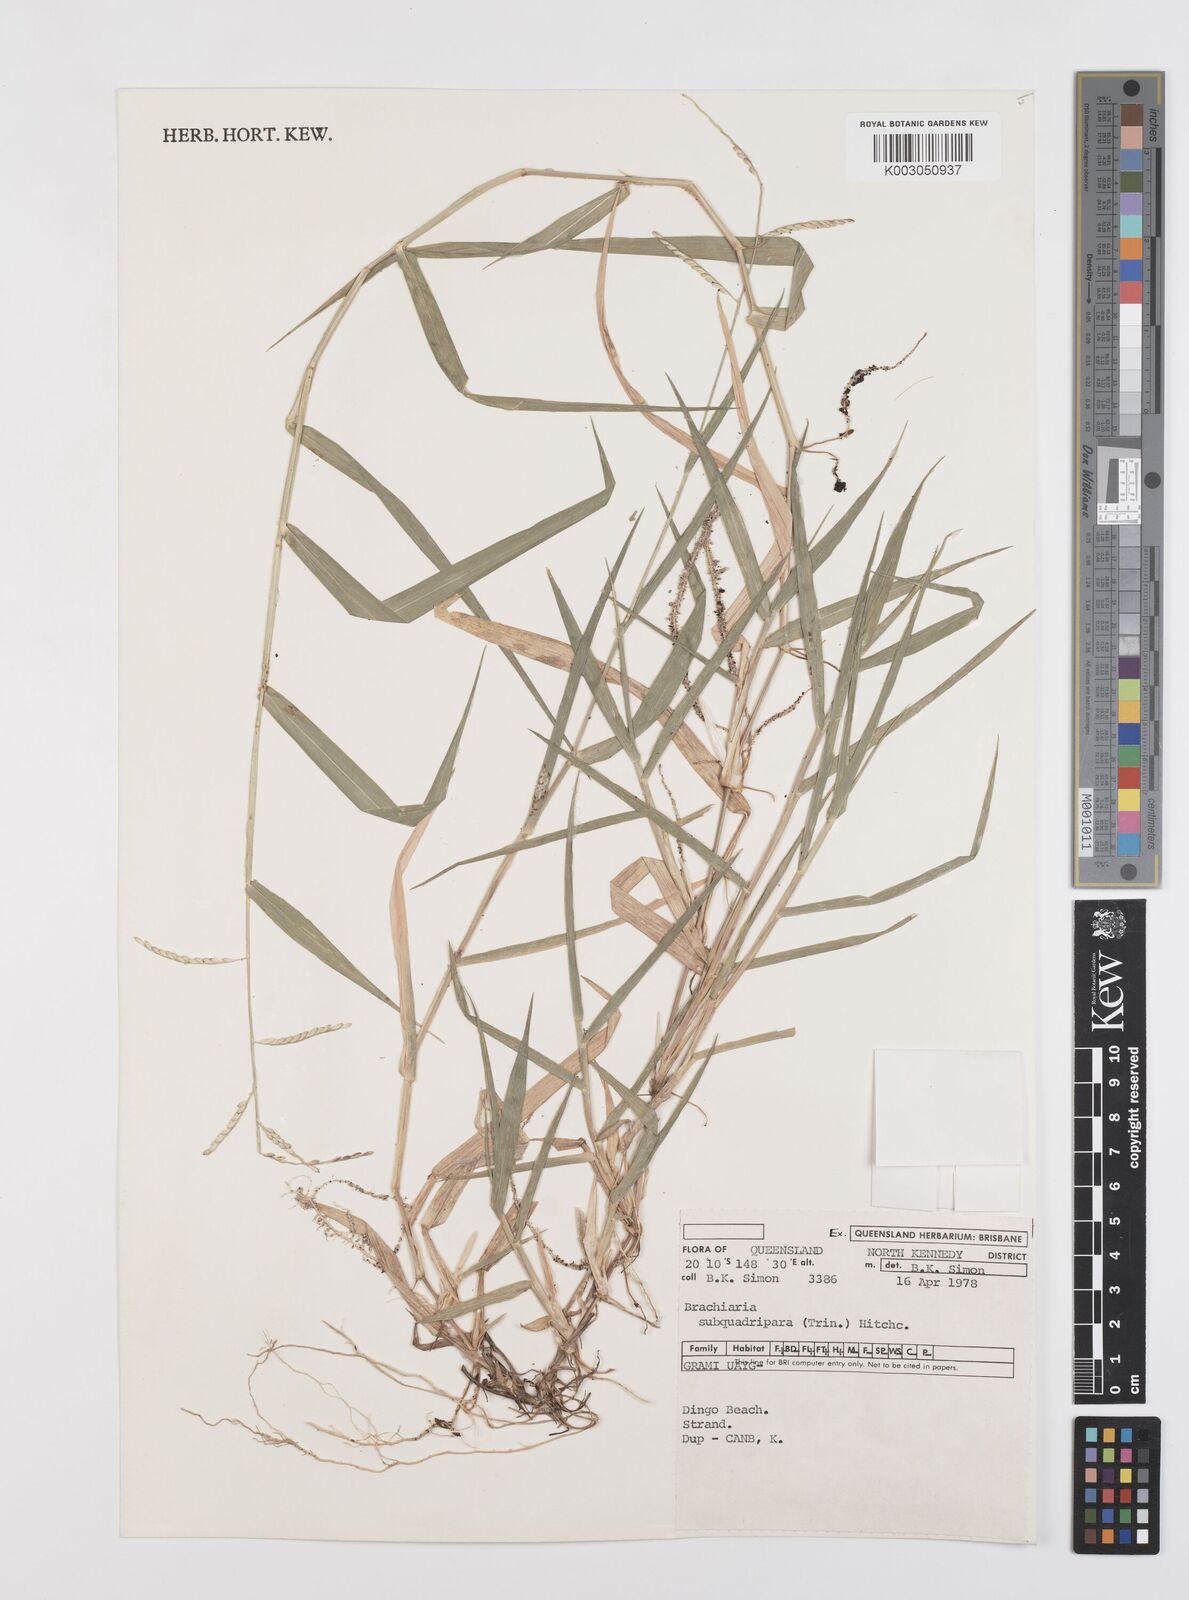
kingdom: Plantae
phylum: Tracheophyta
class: Liliopsida
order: Poales
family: Poaceae
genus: Urochloa
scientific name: Urochloa subquadripara
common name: Armgrass millet
